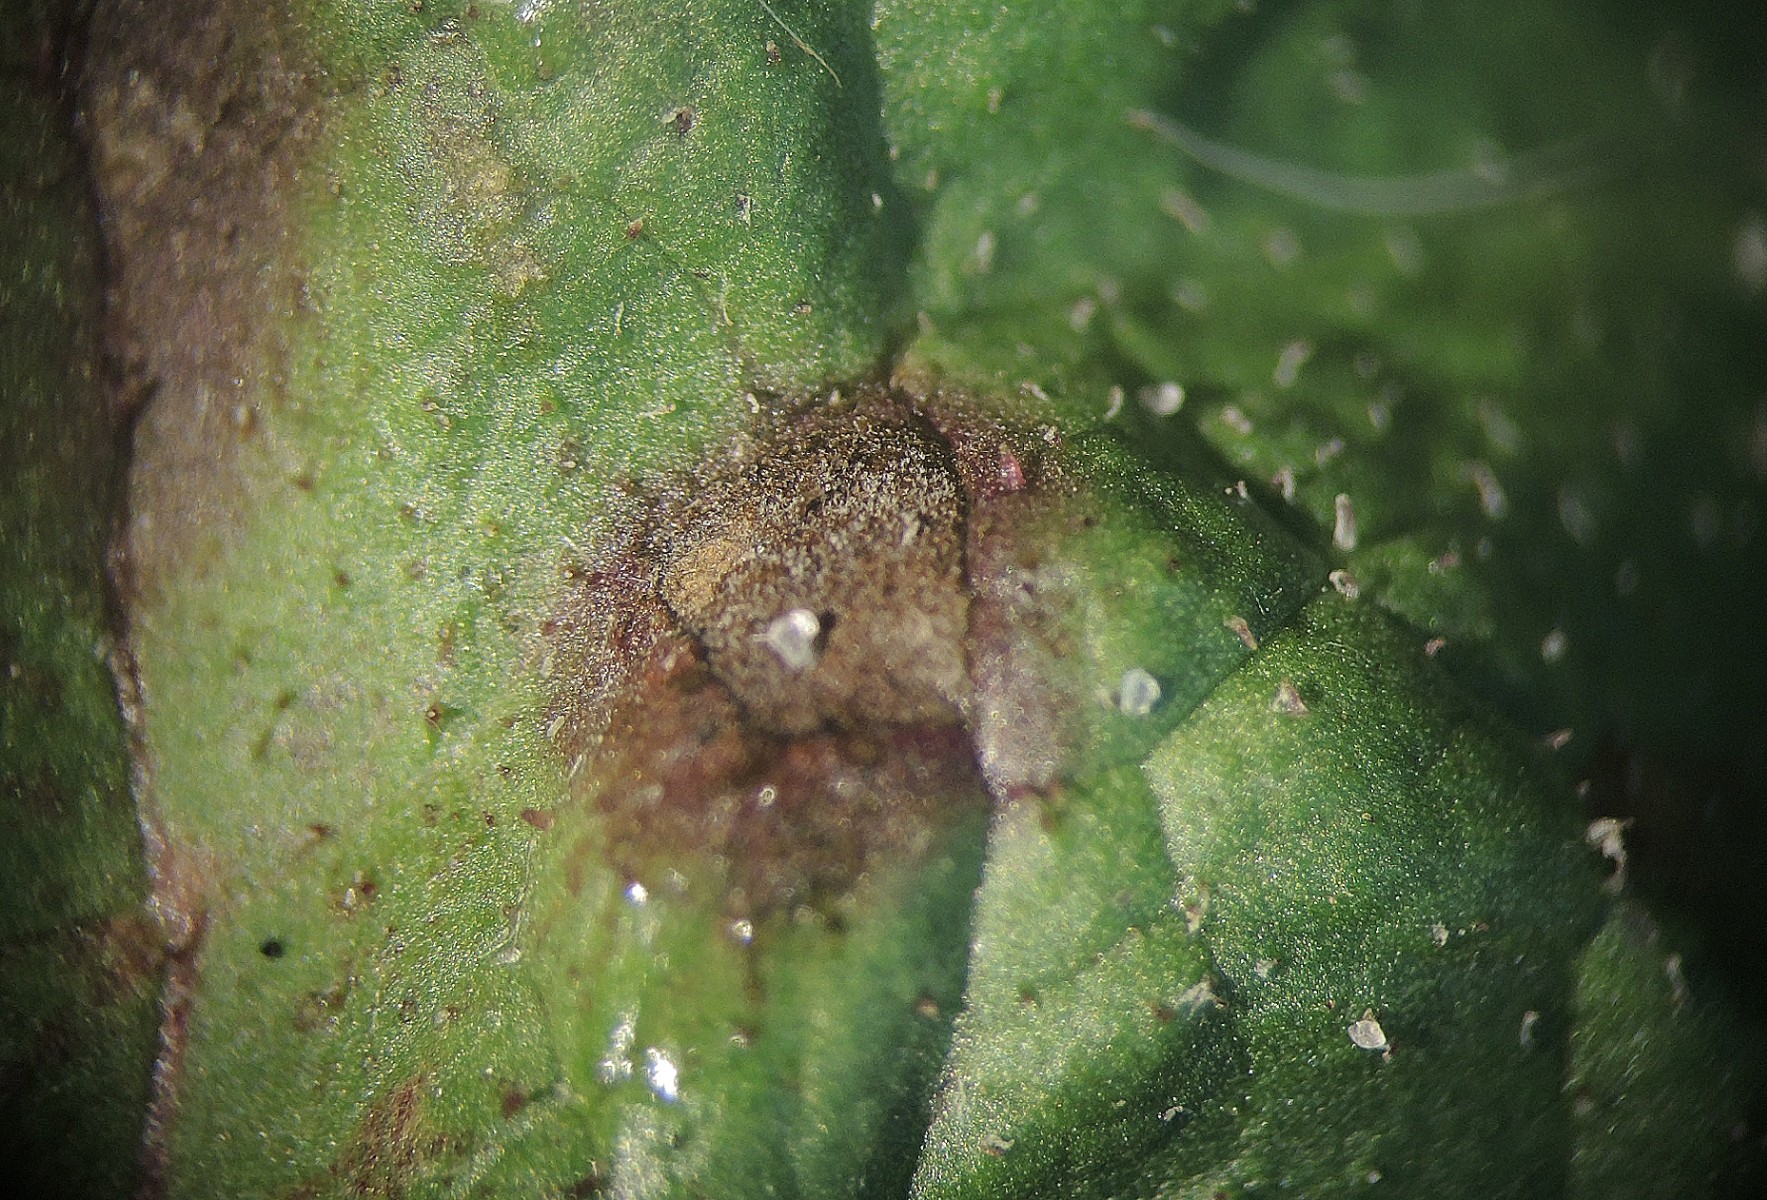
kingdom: Fungi
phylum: Ascomycota
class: Dothideomycetes
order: Mycosphaerellales
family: Mycosphaerellaceae
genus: Ramularia
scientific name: Ramularia taraxaci
